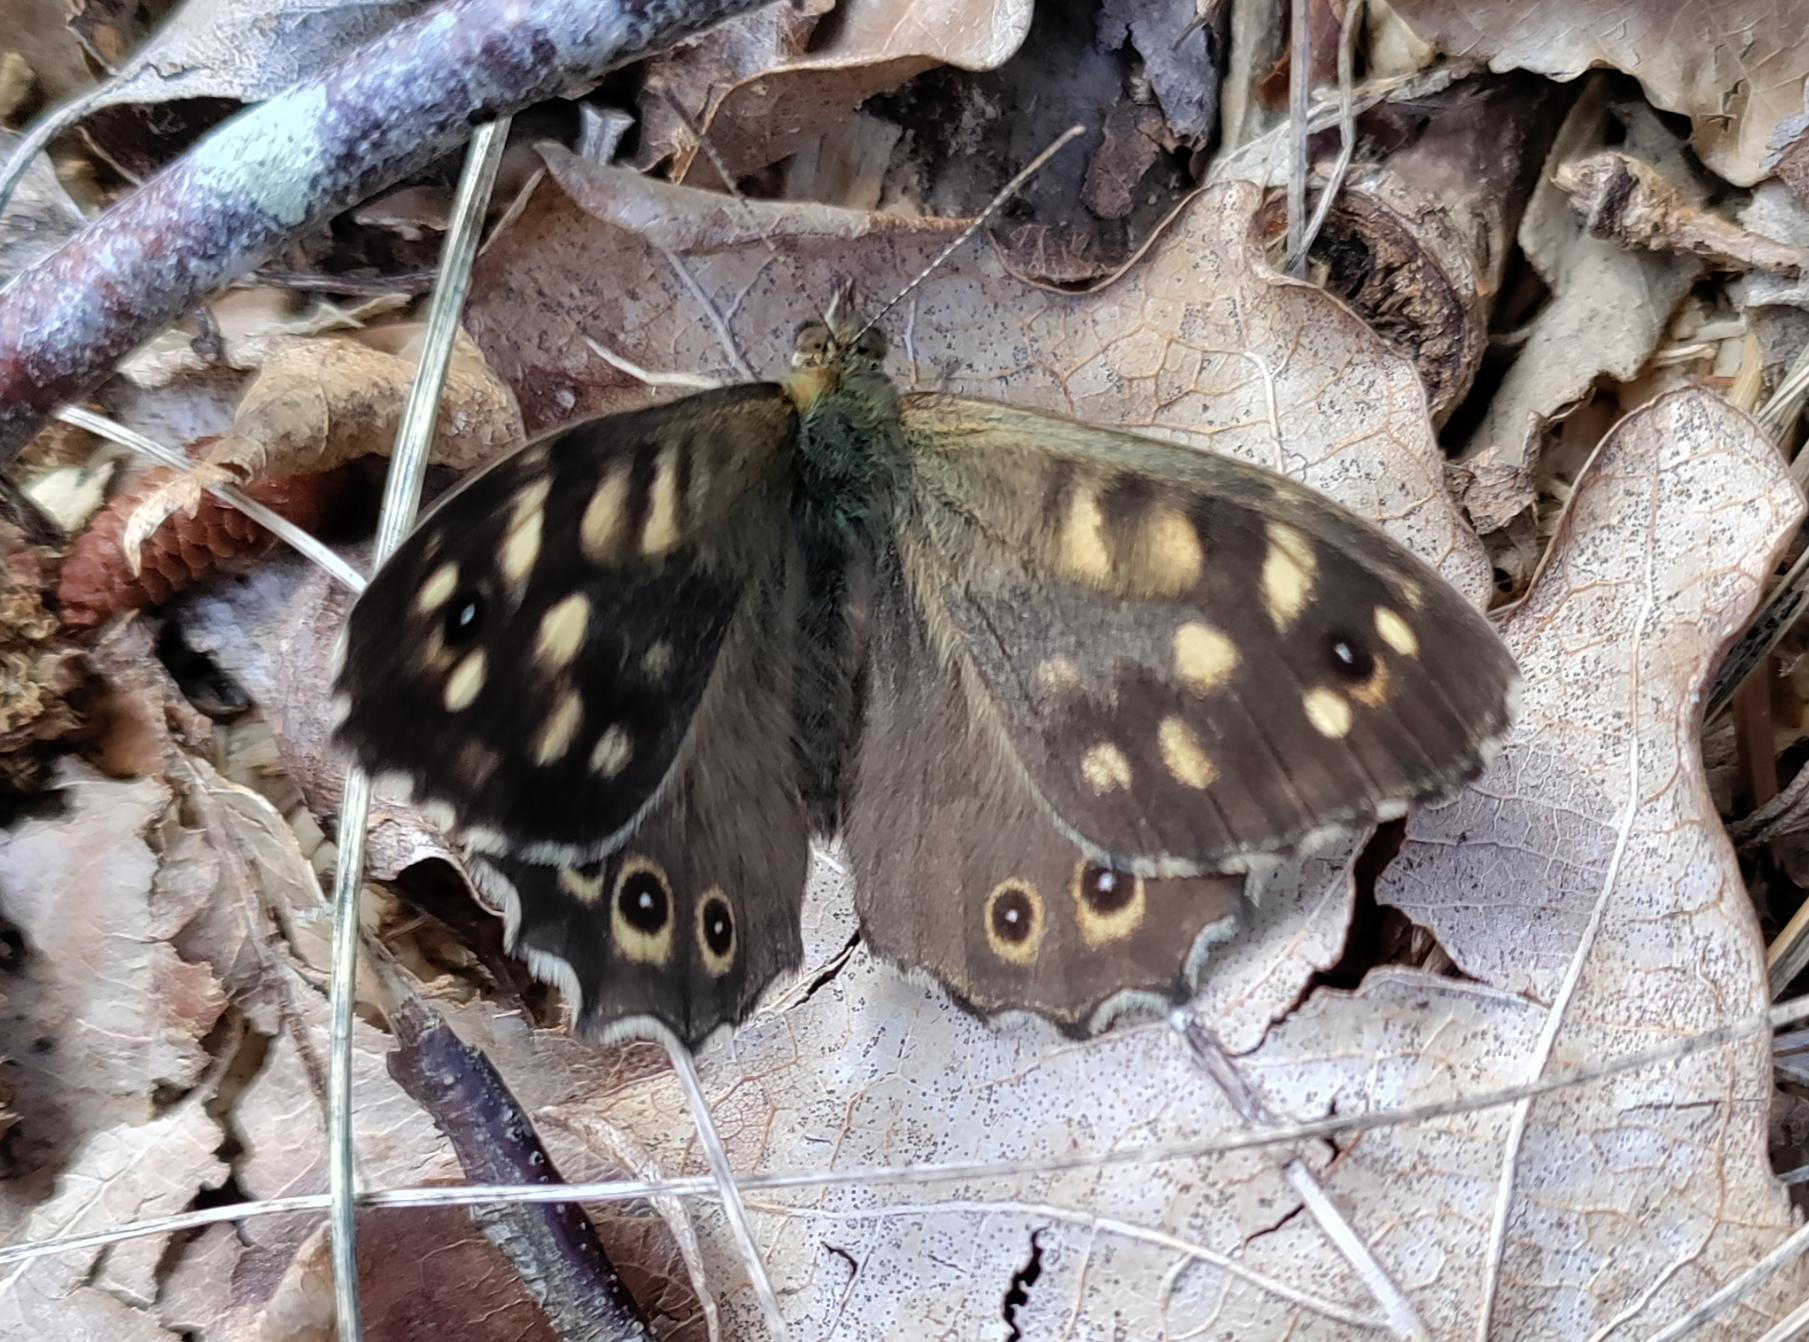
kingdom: Animalia
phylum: Arthropoda
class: Insecta
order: Lepidoptera
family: Nymphalidae
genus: Pararge
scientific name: Pararge aegeria
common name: Skovrandøje
